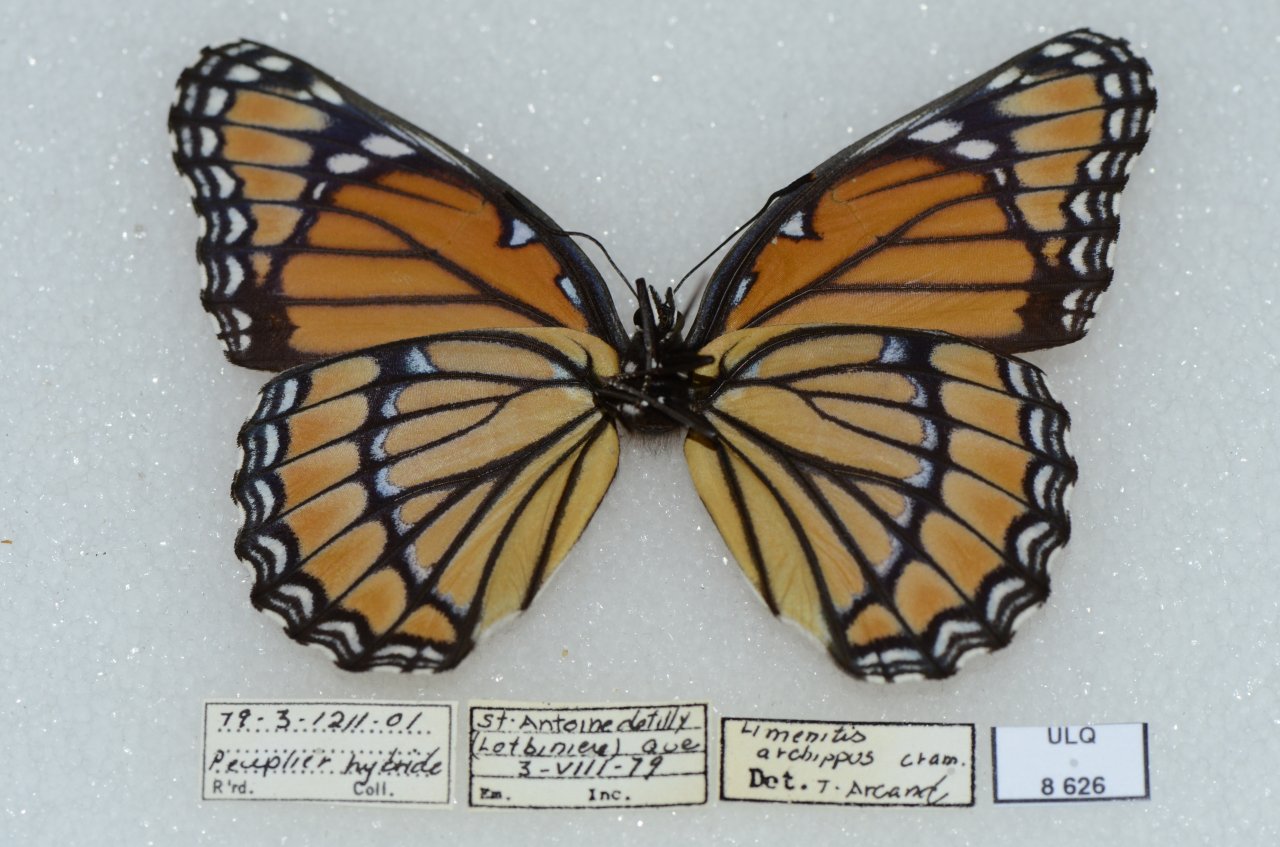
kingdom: Animalia
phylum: Arthropoda
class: Insecta
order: Lepidoptera
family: Nymphalidae
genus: Limenitis
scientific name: Limenitis archippus
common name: Viceroy
